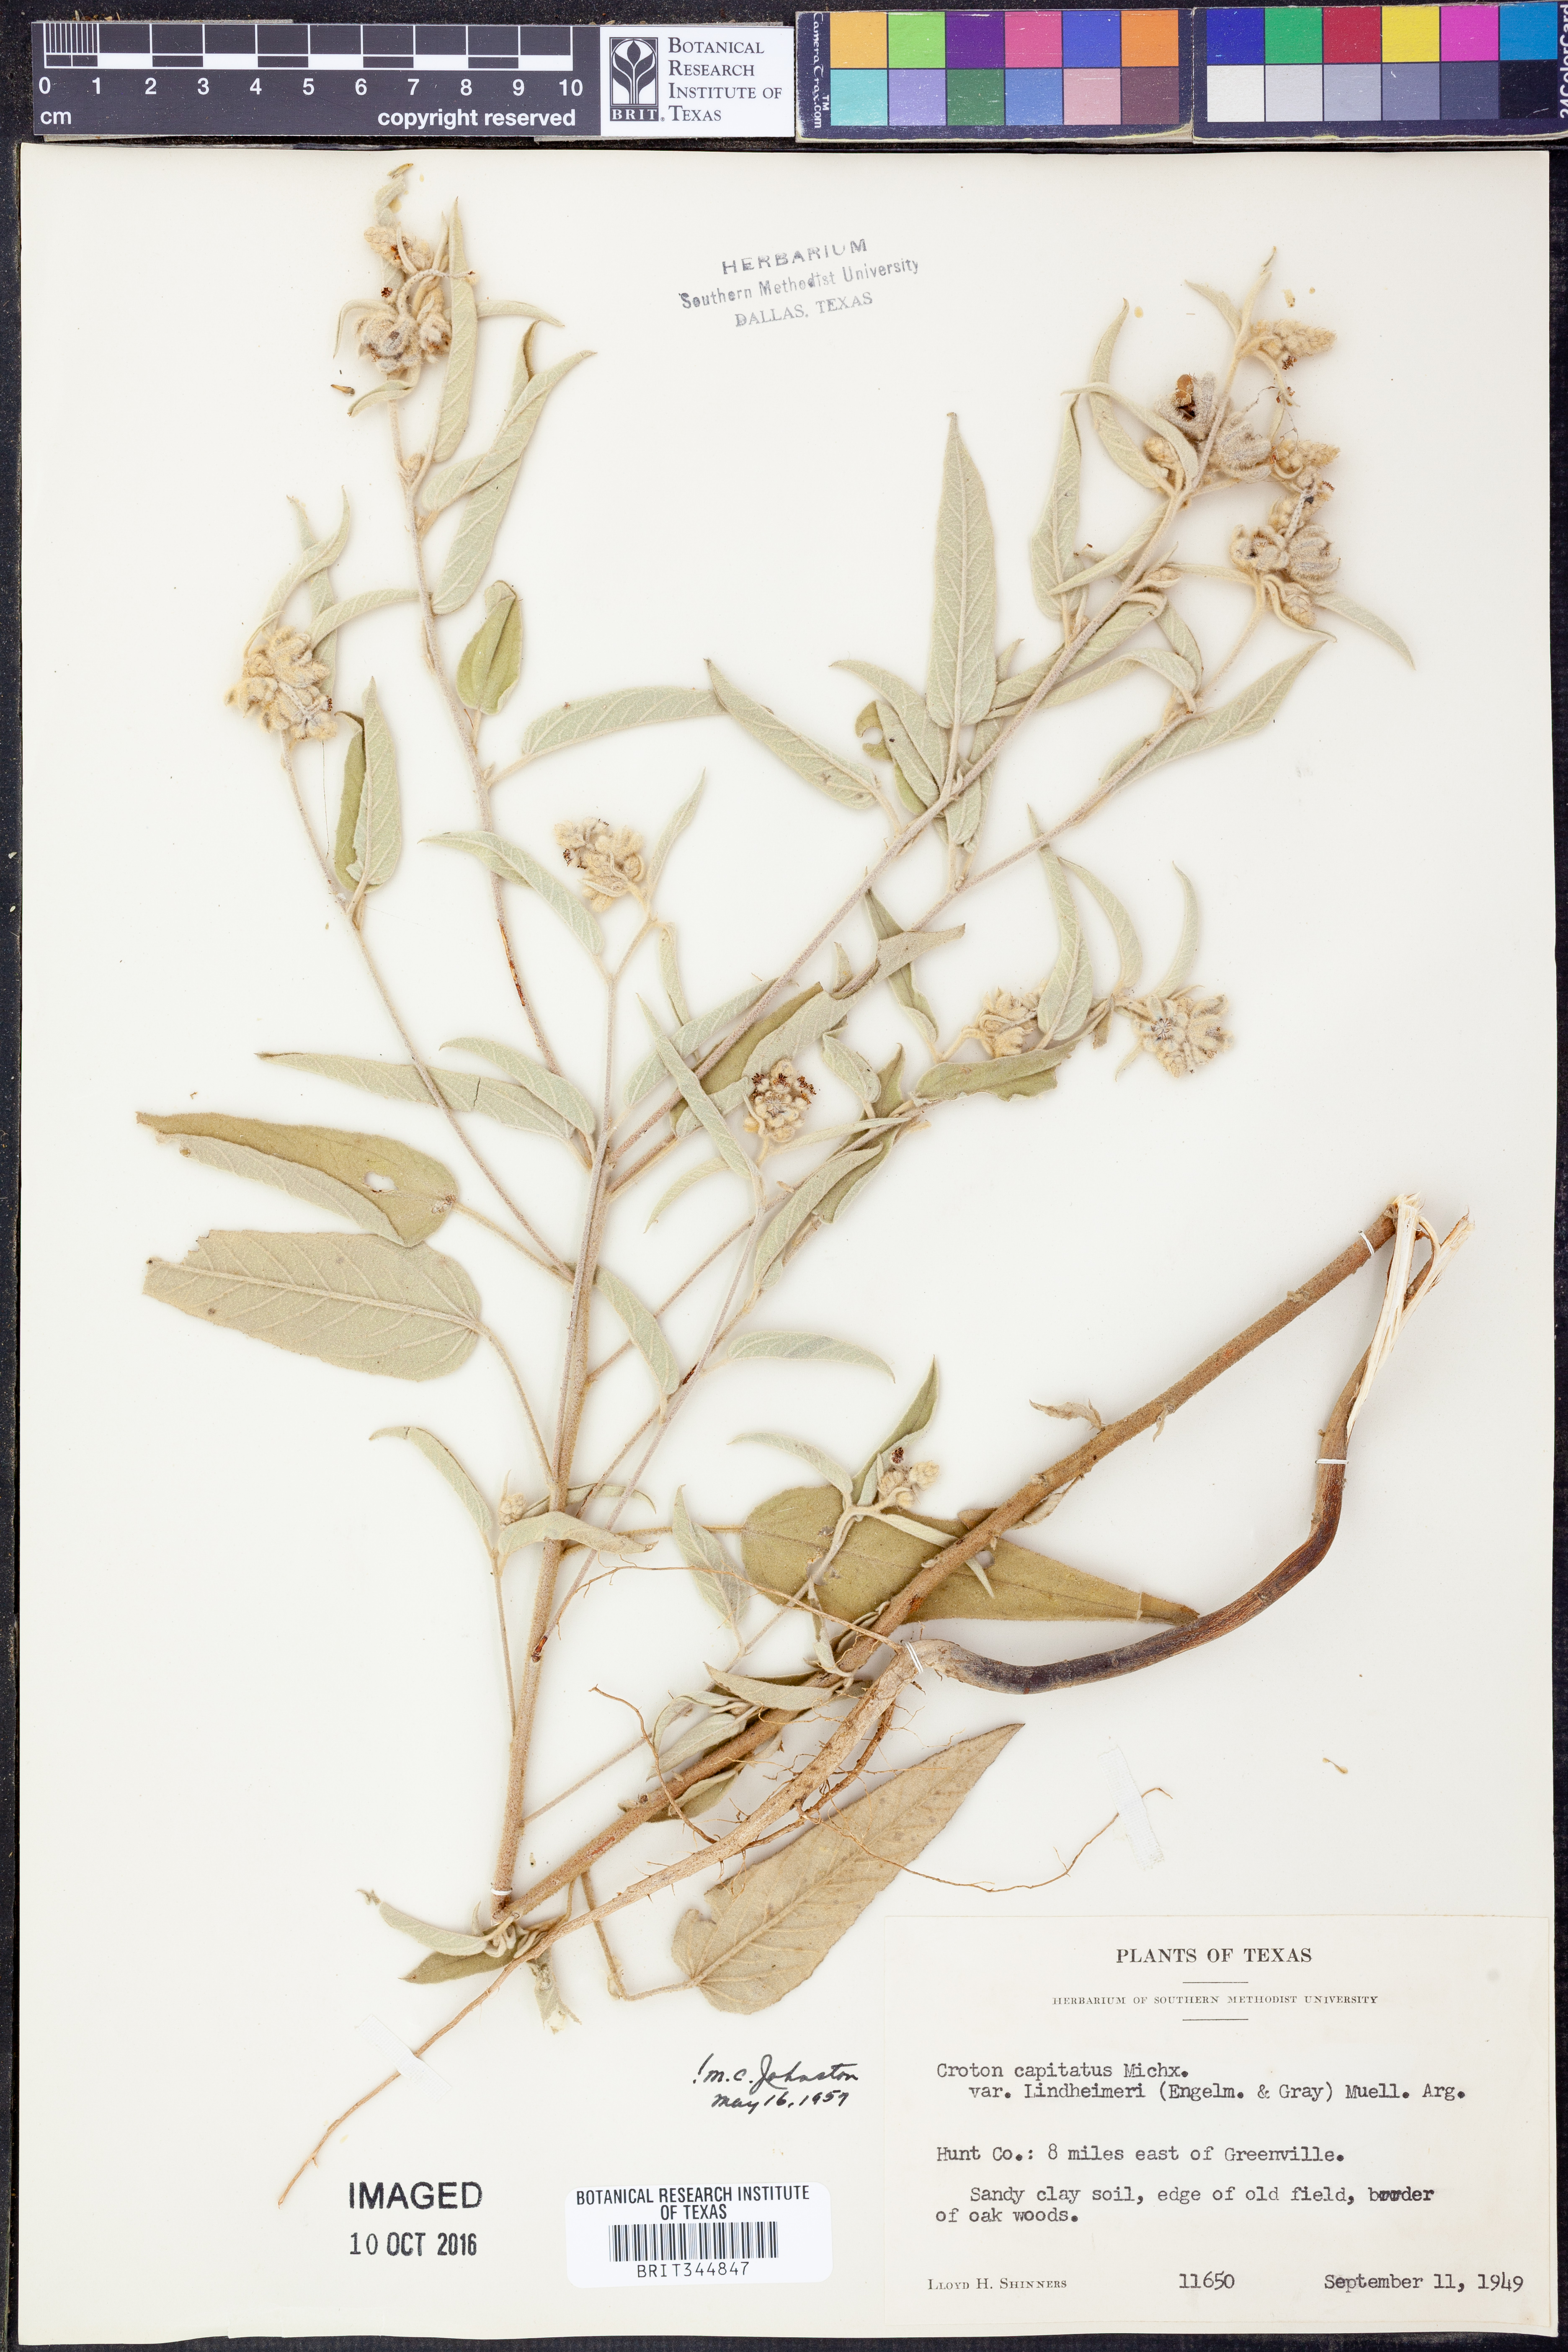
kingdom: Plantae
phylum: Tracheophyta
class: Magnoliopsida
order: Malpighiales
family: Euphorbiaceae
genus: Croton
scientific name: Croton lindheimeri
